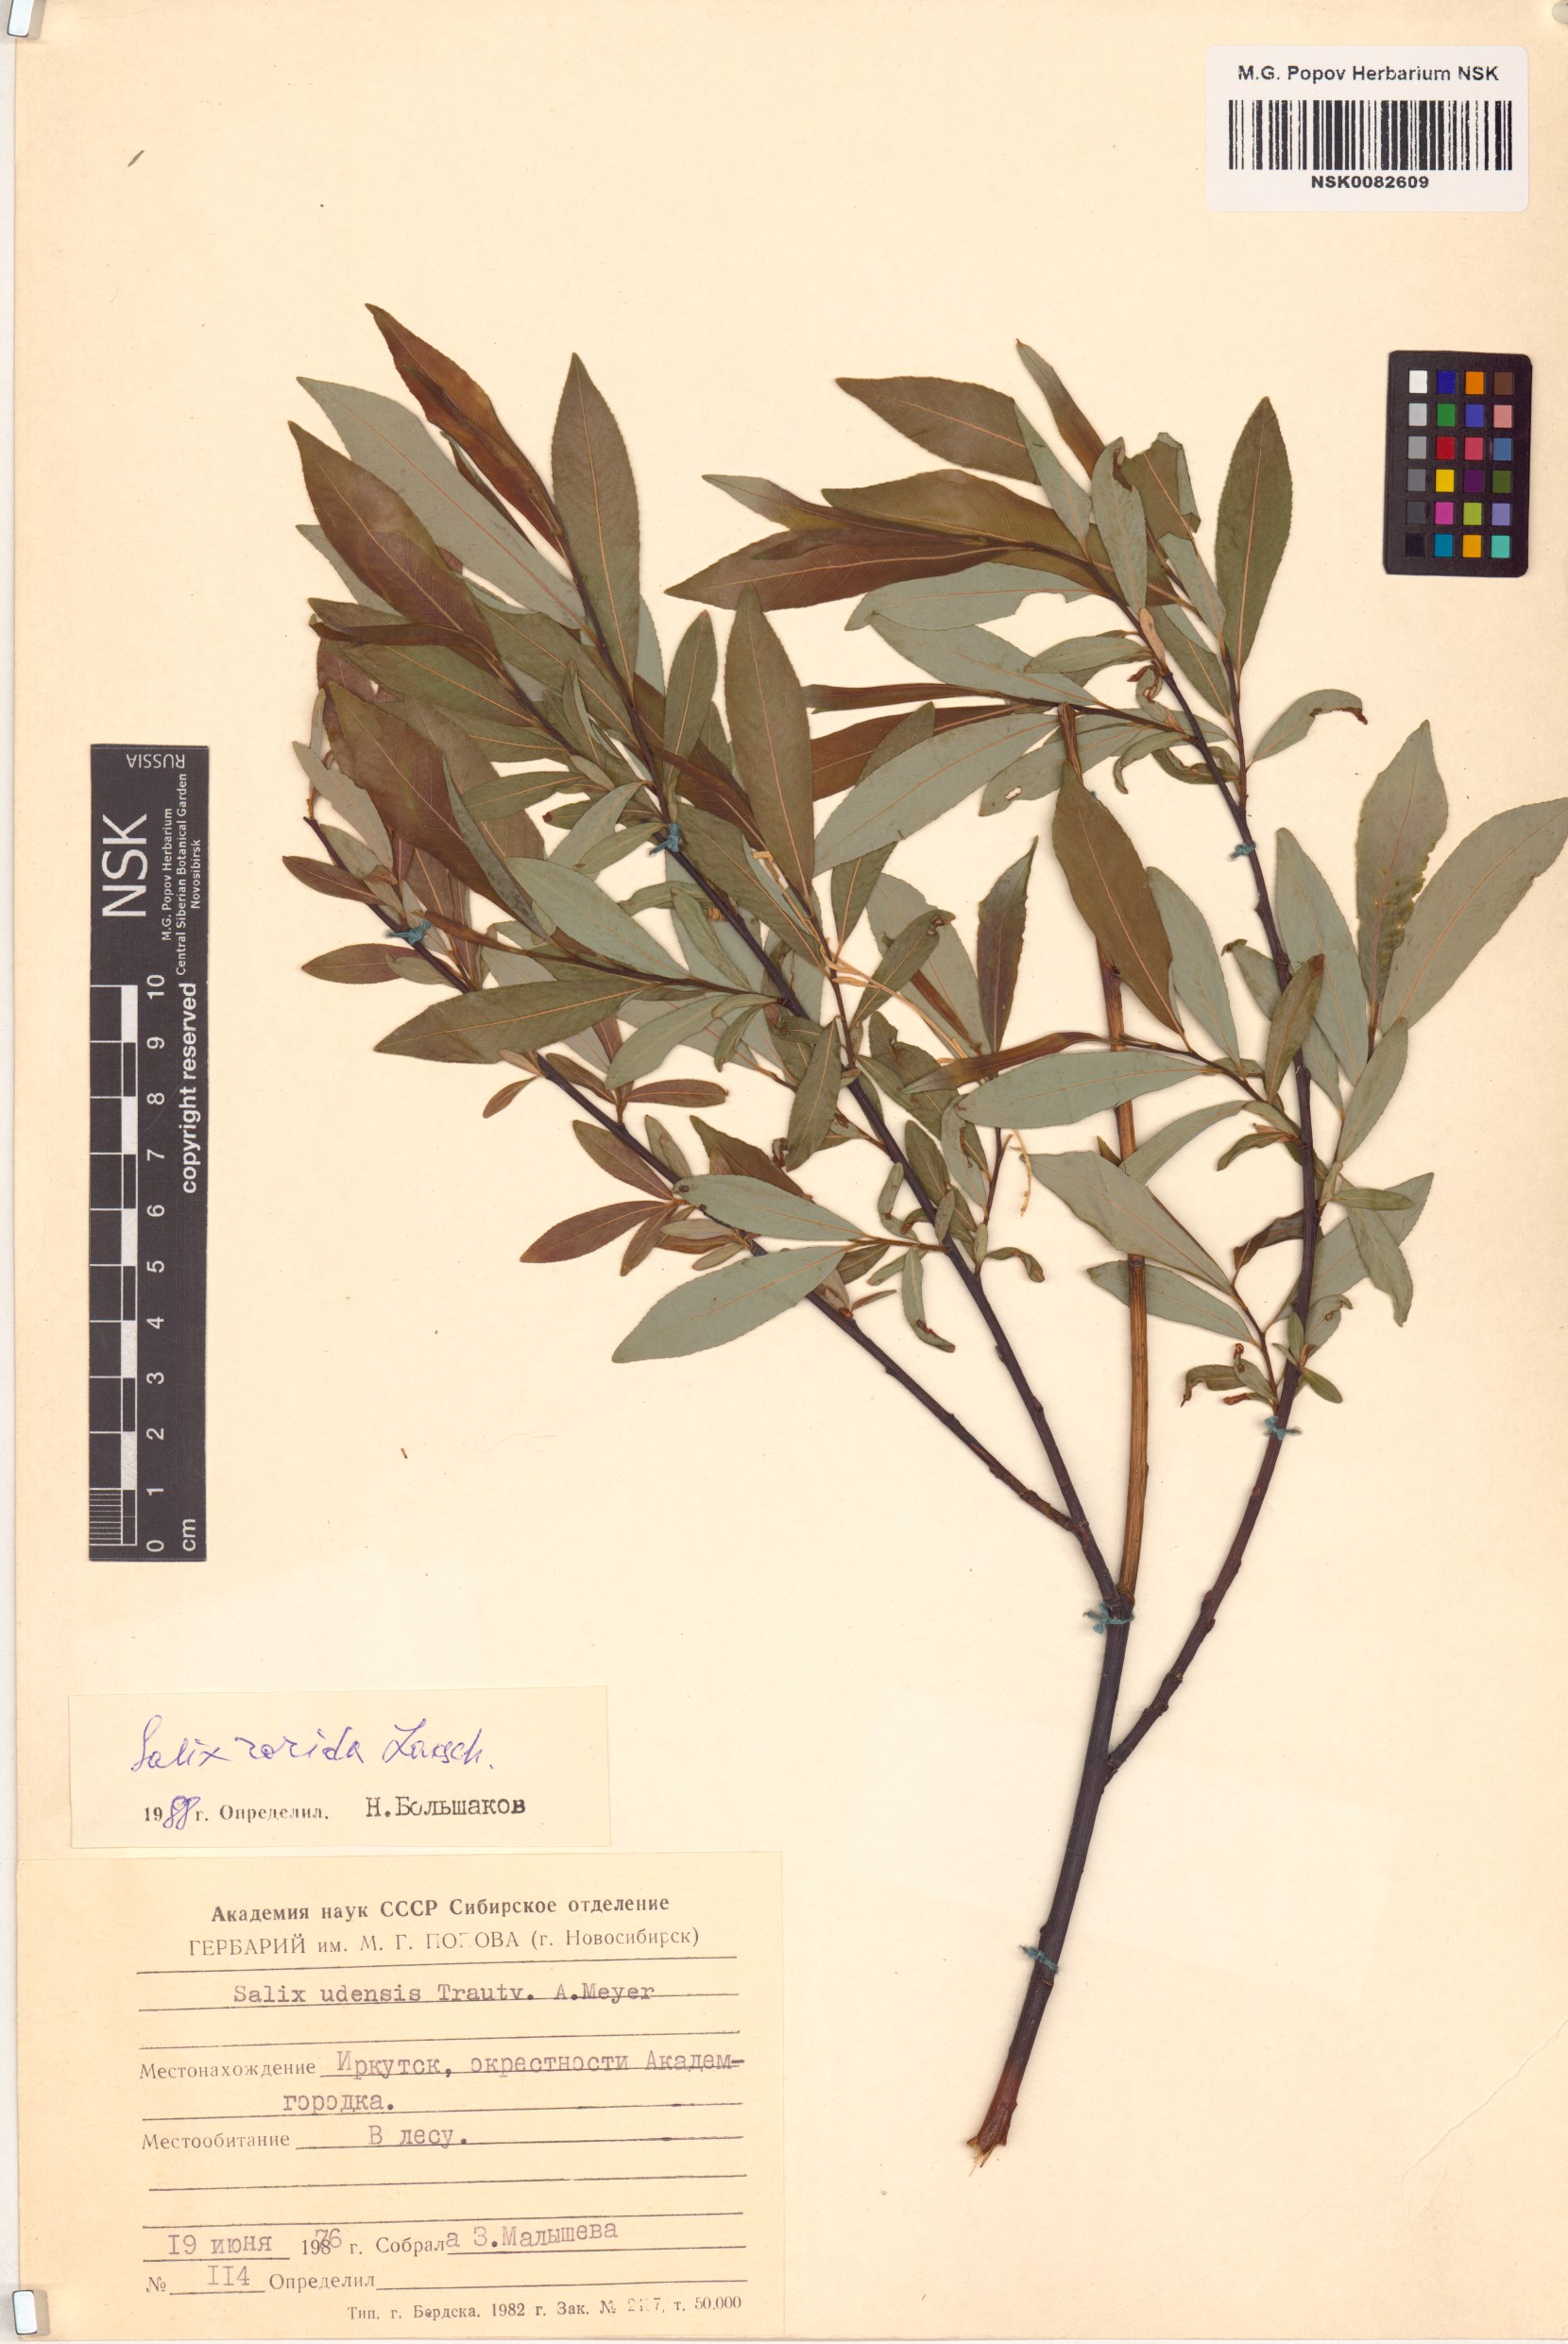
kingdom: Plantae
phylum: Tracheophyta
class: Magnoliopsida
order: Malpighiales
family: Salicaceae
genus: Salix
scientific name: Salix rorida
